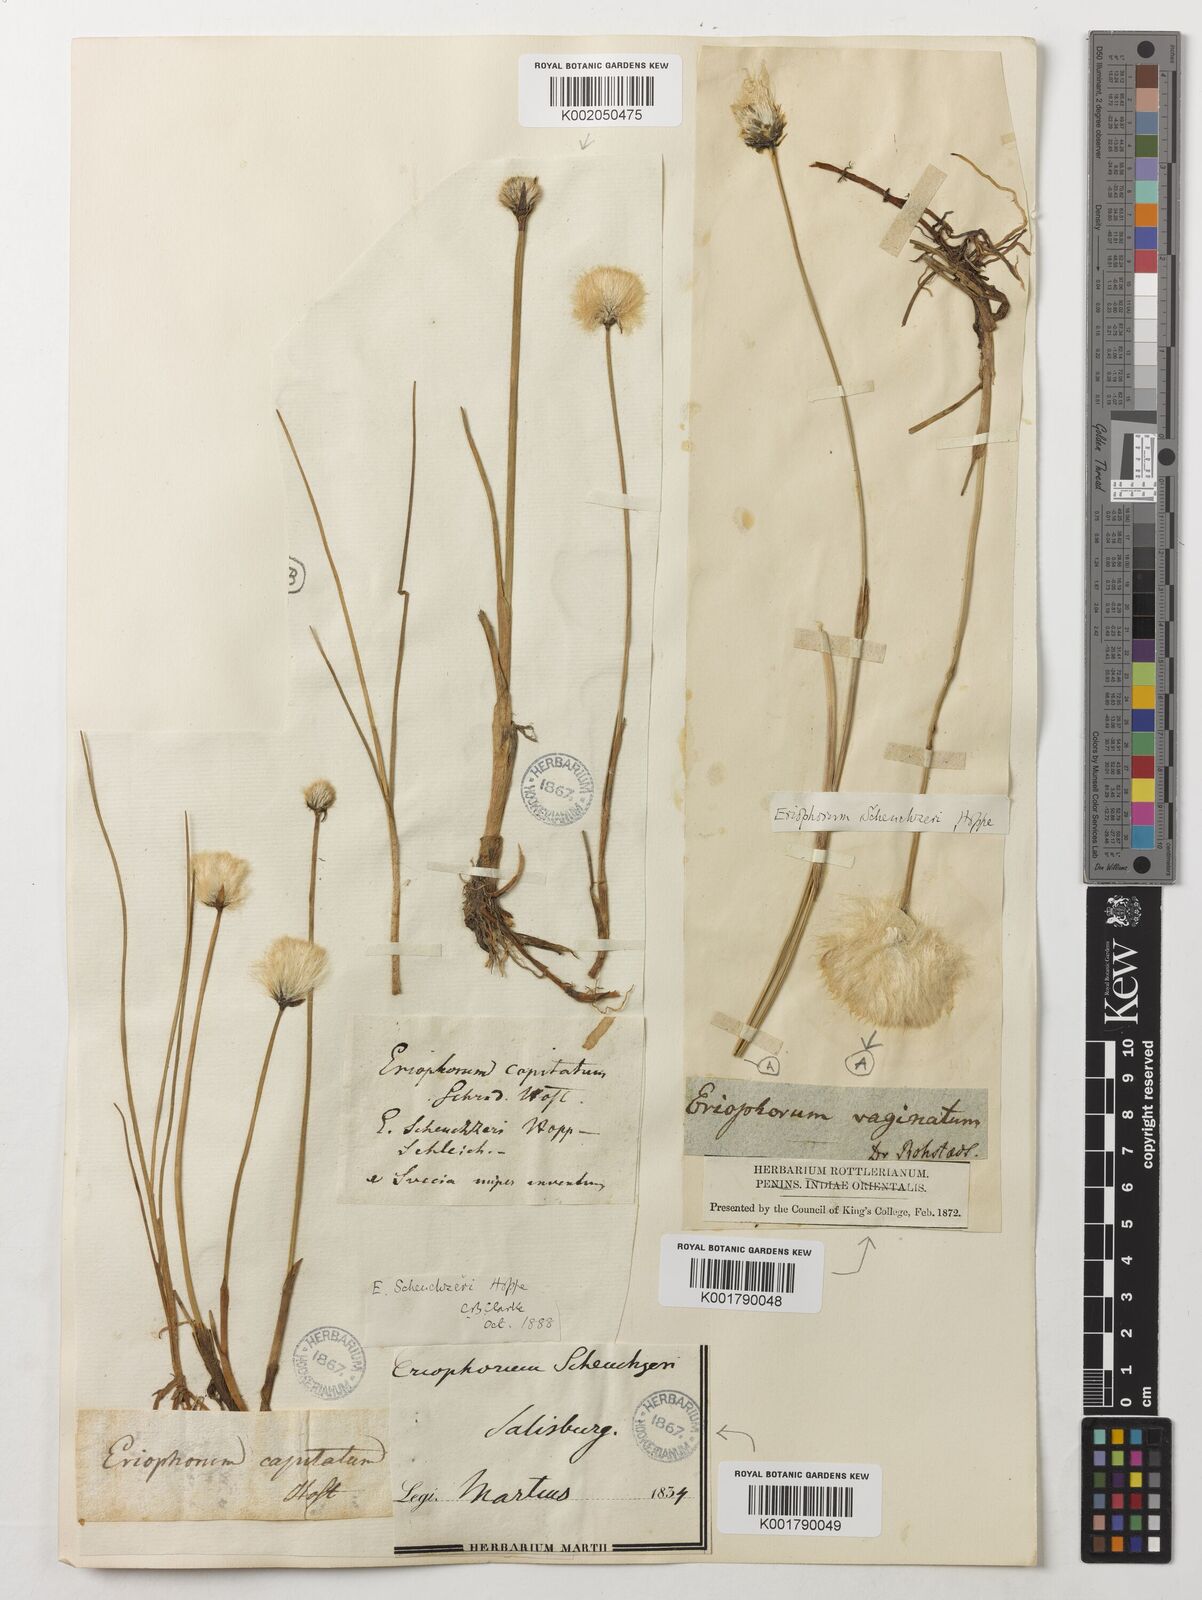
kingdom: Plantae
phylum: Tracheophyta
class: Liliopsida
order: Poales
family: Cyperaceae
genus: Eriophorum
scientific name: Eriophorum scheuchzeri
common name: Scheuchzer's cottongrass
